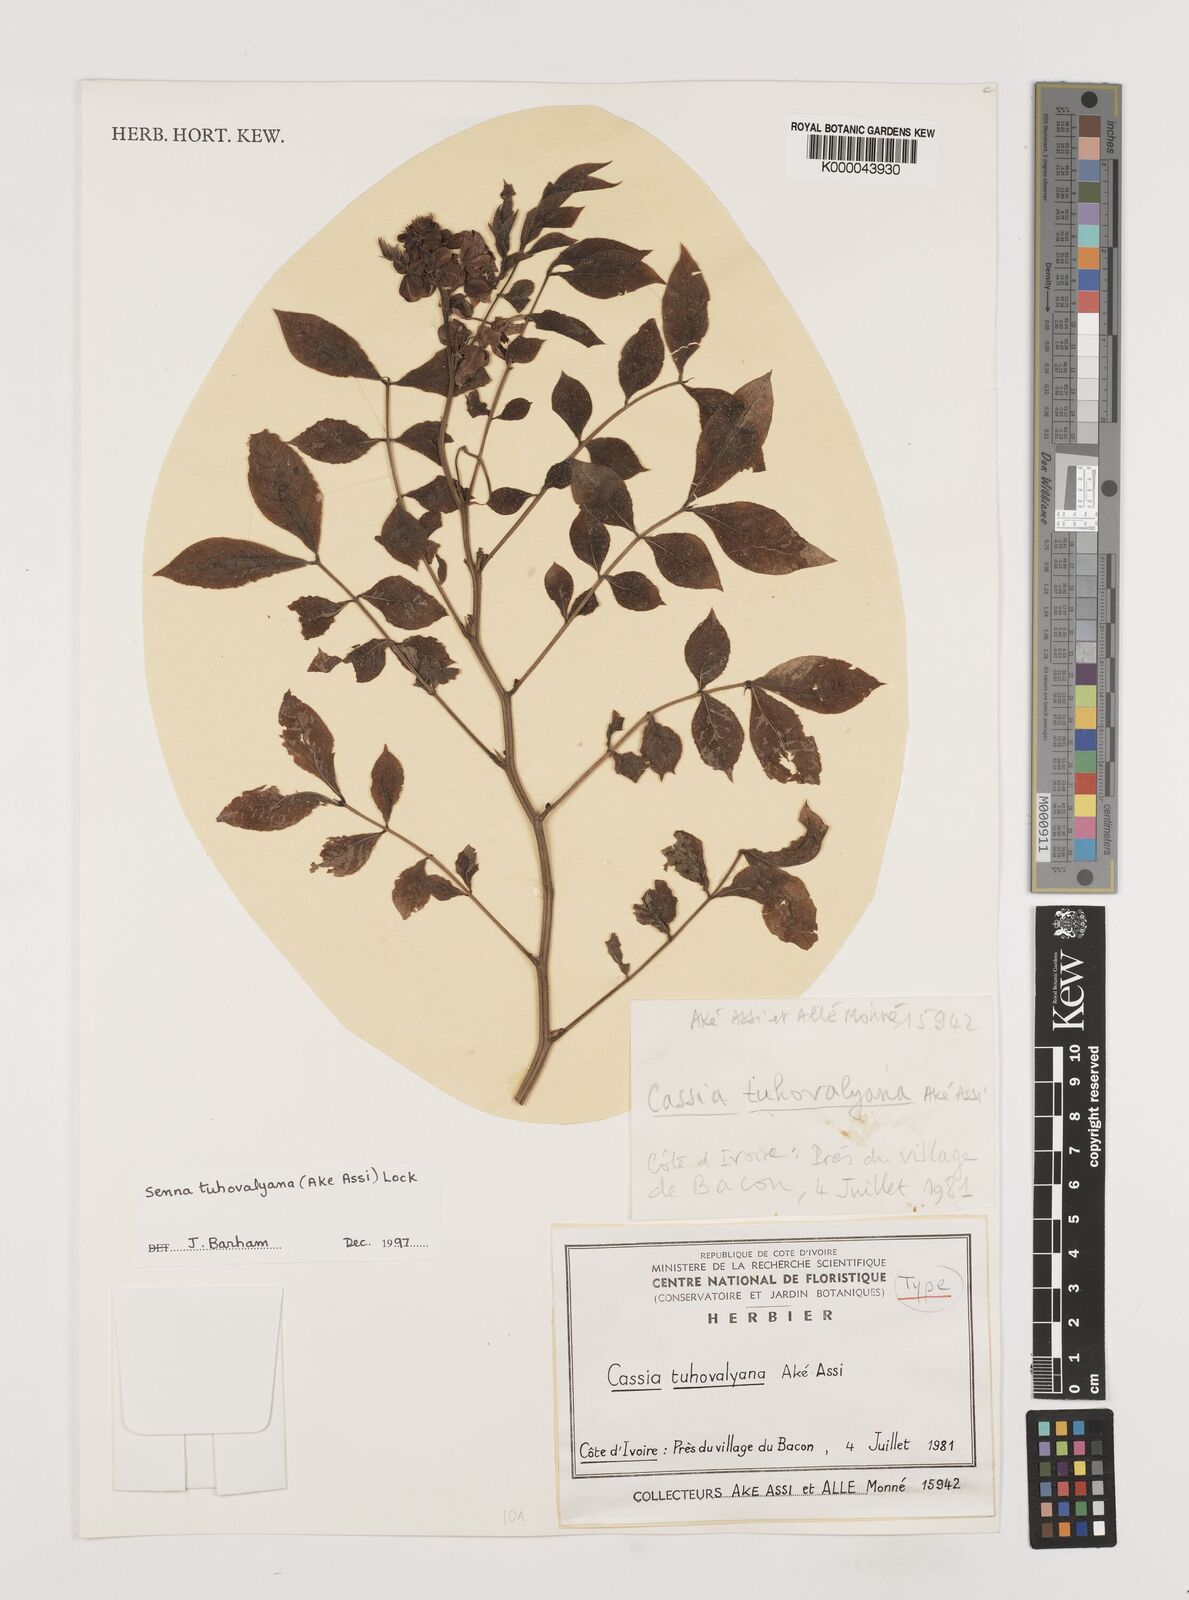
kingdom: Plantae
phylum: Tracheophyta
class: Magnoliopsida
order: Fabales
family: Fabaceae
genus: Senna
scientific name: Senna
